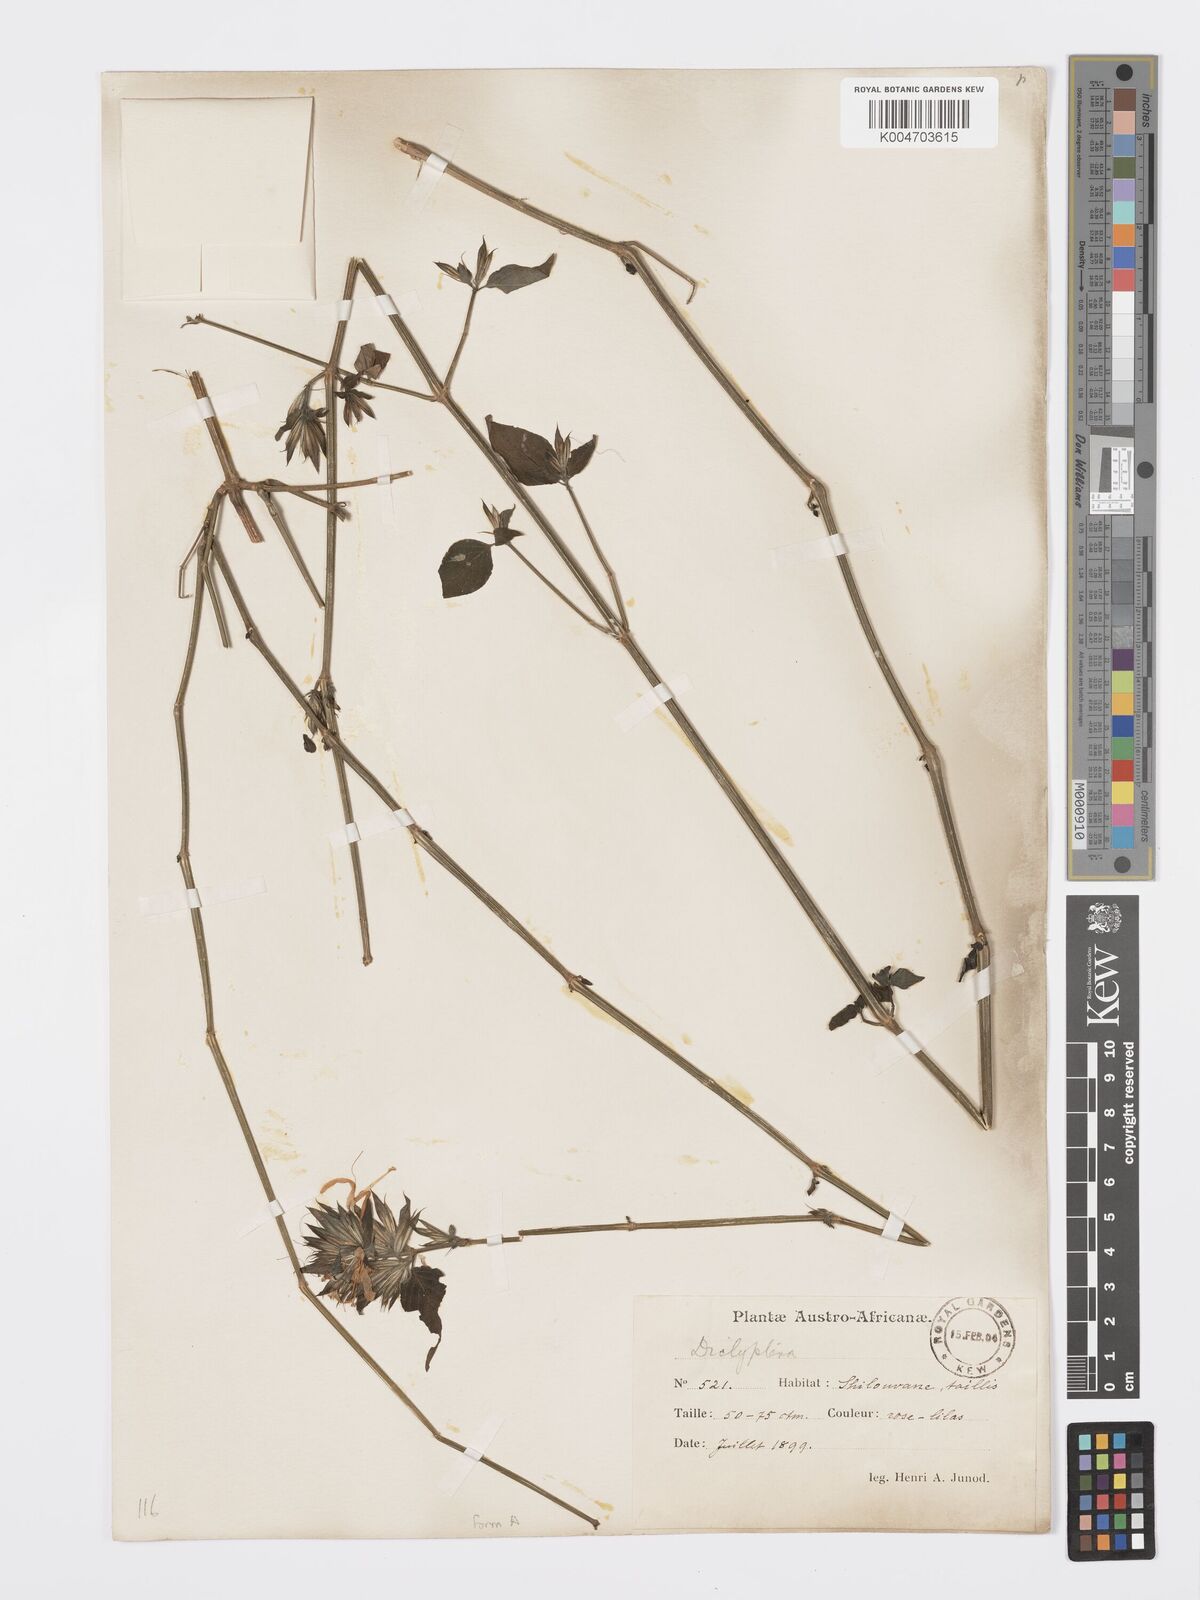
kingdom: Plantae
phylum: Tracheophyta
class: Magnoliopsida
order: Lamiales
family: Acanthaceae
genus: Dicliptera
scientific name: Dicliptera clinopodia
